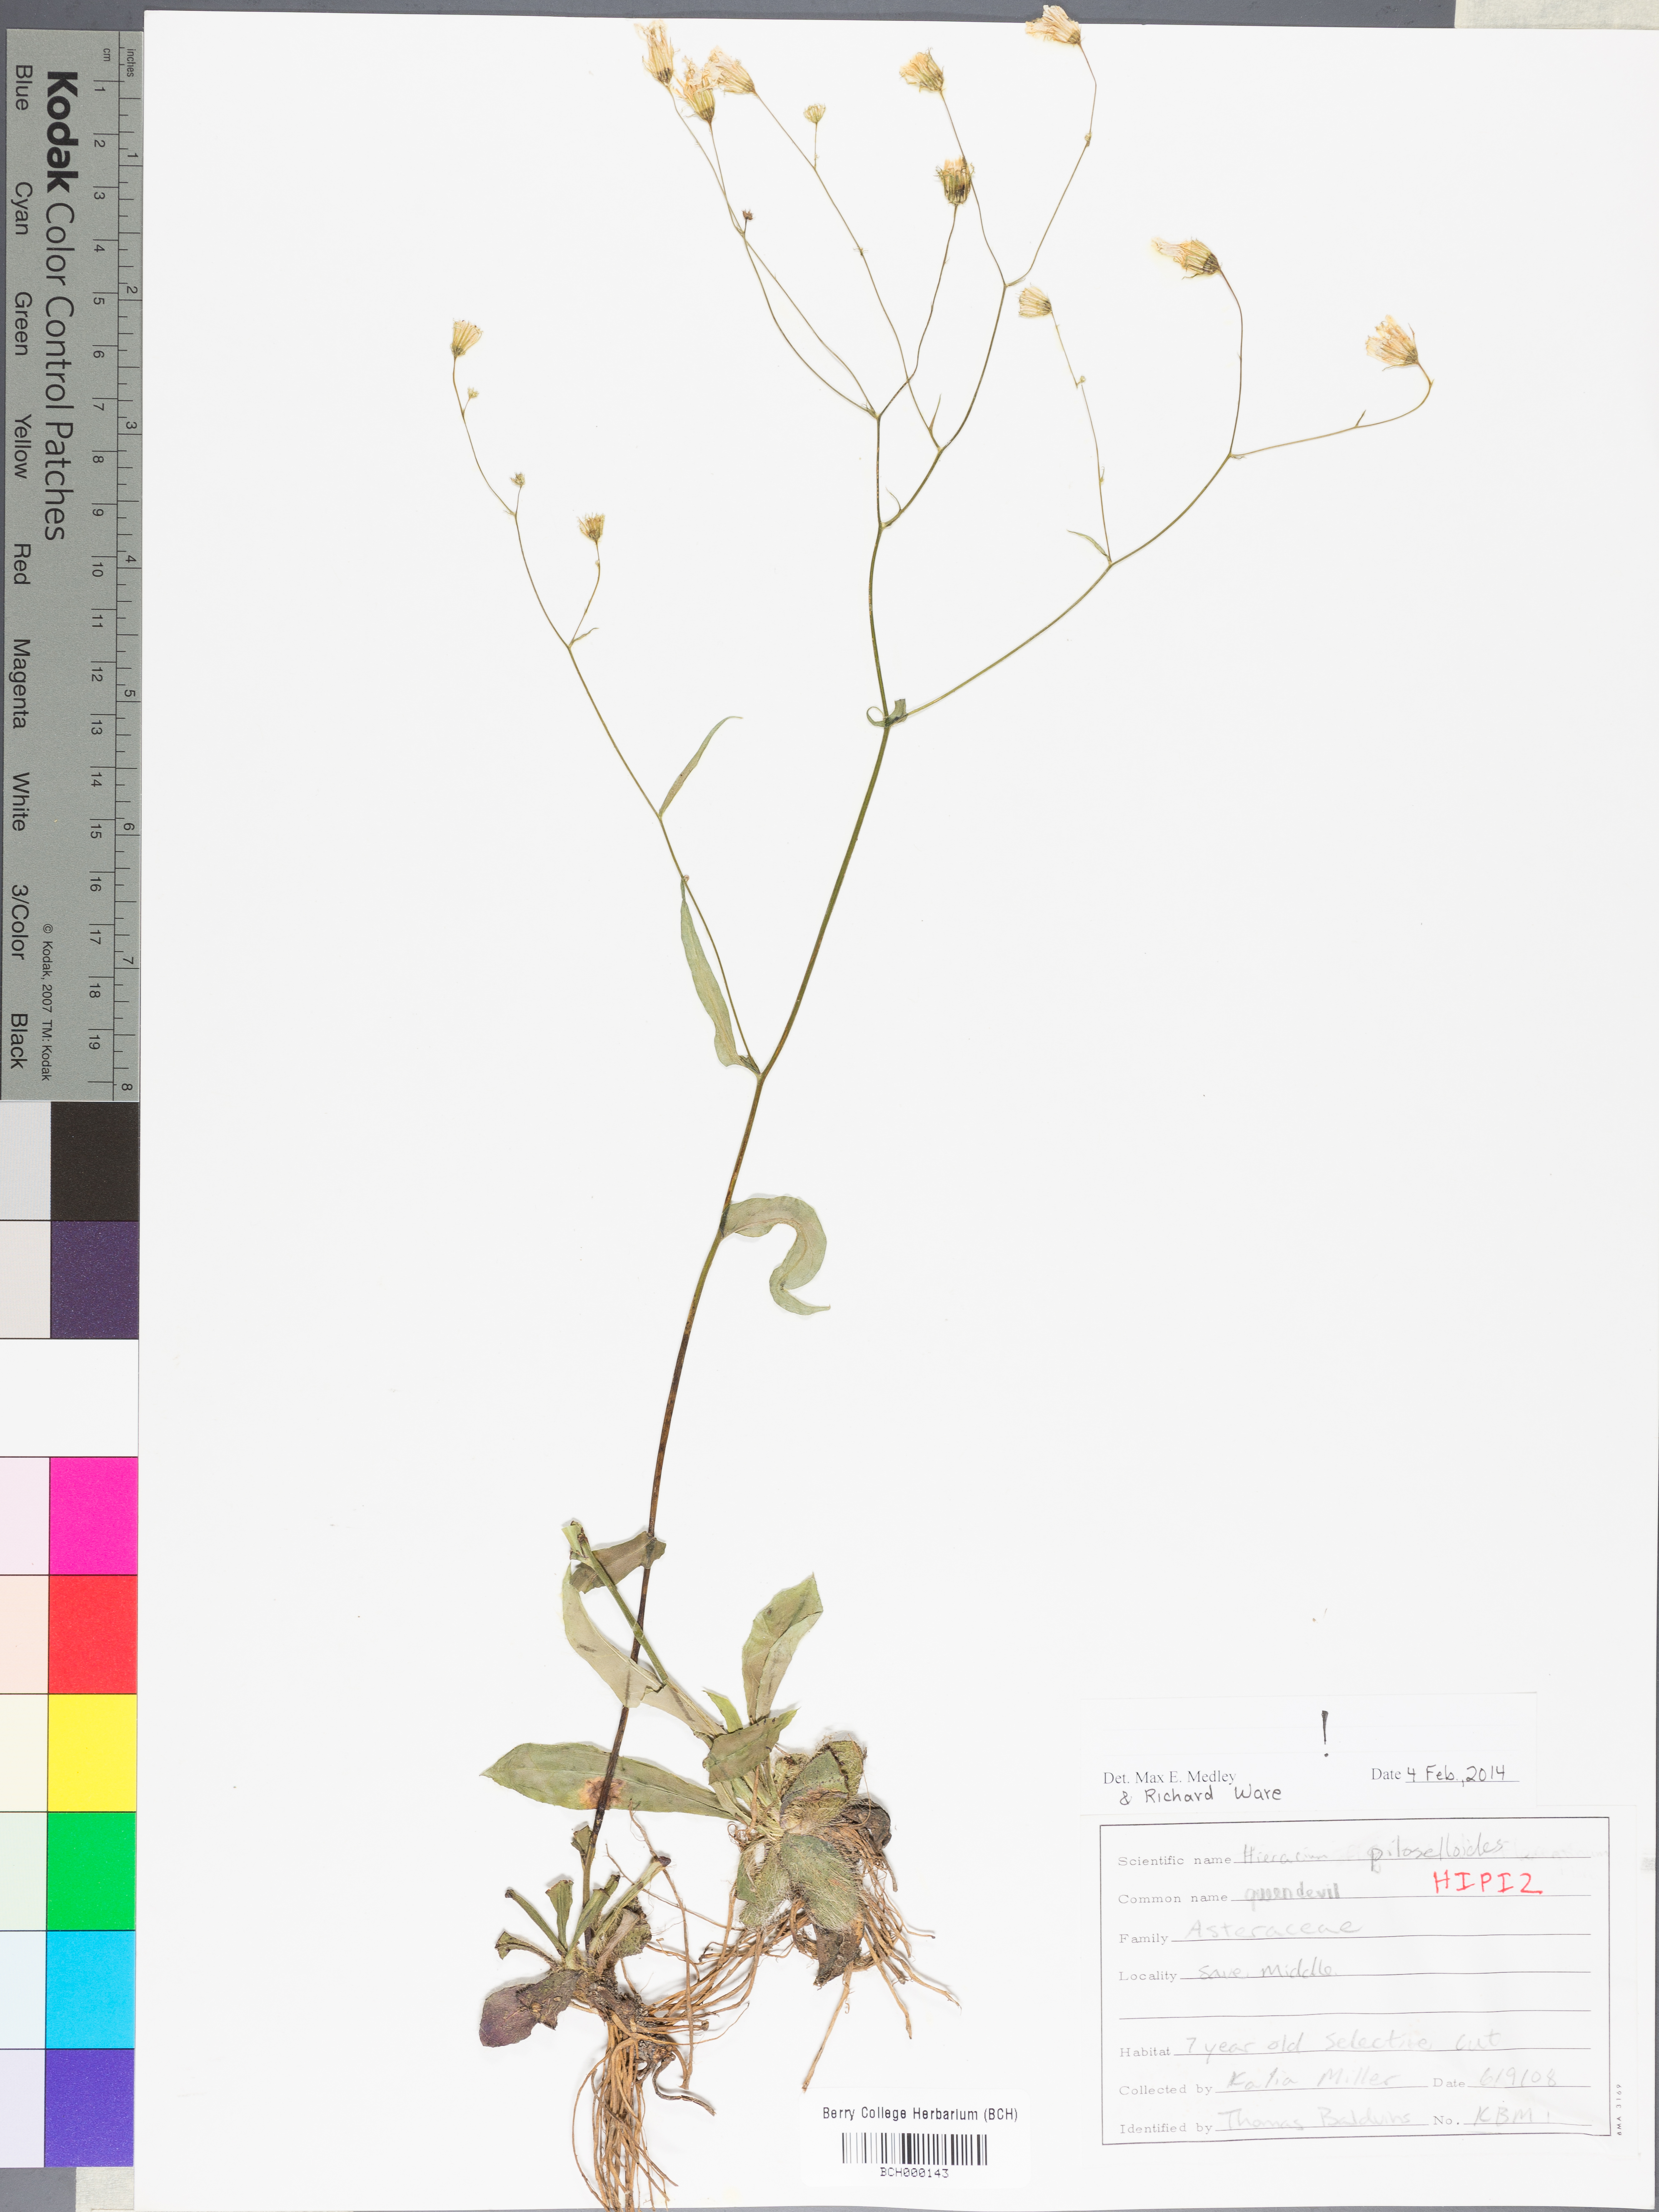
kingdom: Plantae
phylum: Tracheophyta
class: Magnoliopsida
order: Asterales
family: Asteraceae
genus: Pilosella
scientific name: Pilosella piloselloides
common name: Glaucous king-devil
